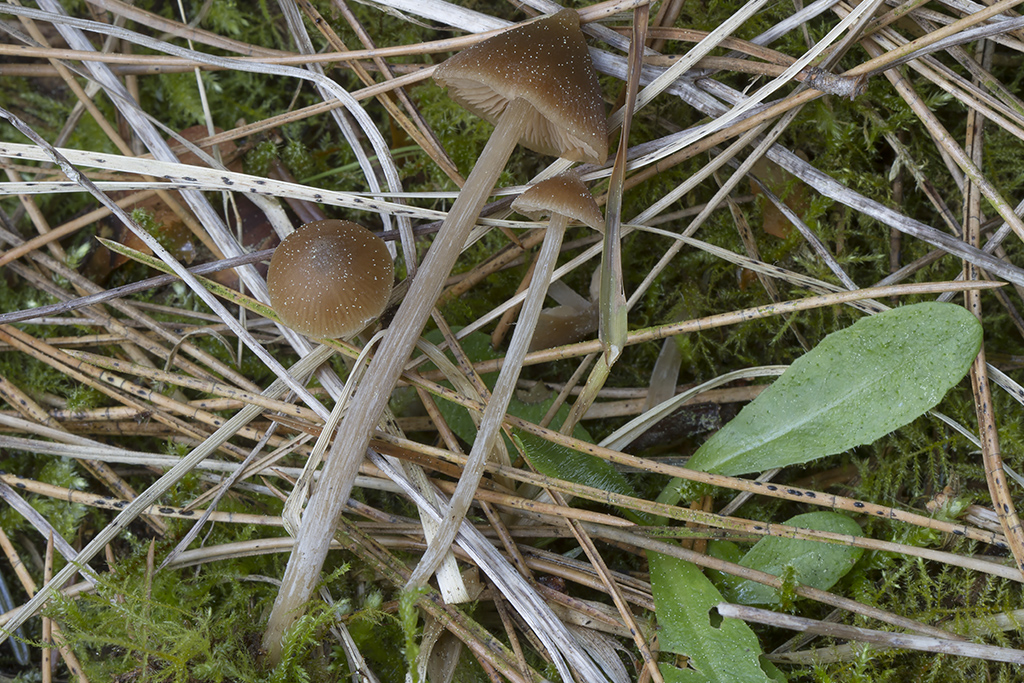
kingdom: Fungi
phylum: Basidiomycota
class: Agaricomycetes
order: Agaricales
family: Entolomataceae
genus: Entoloma
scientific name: Entoloma vernum
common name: vår-rødblad
